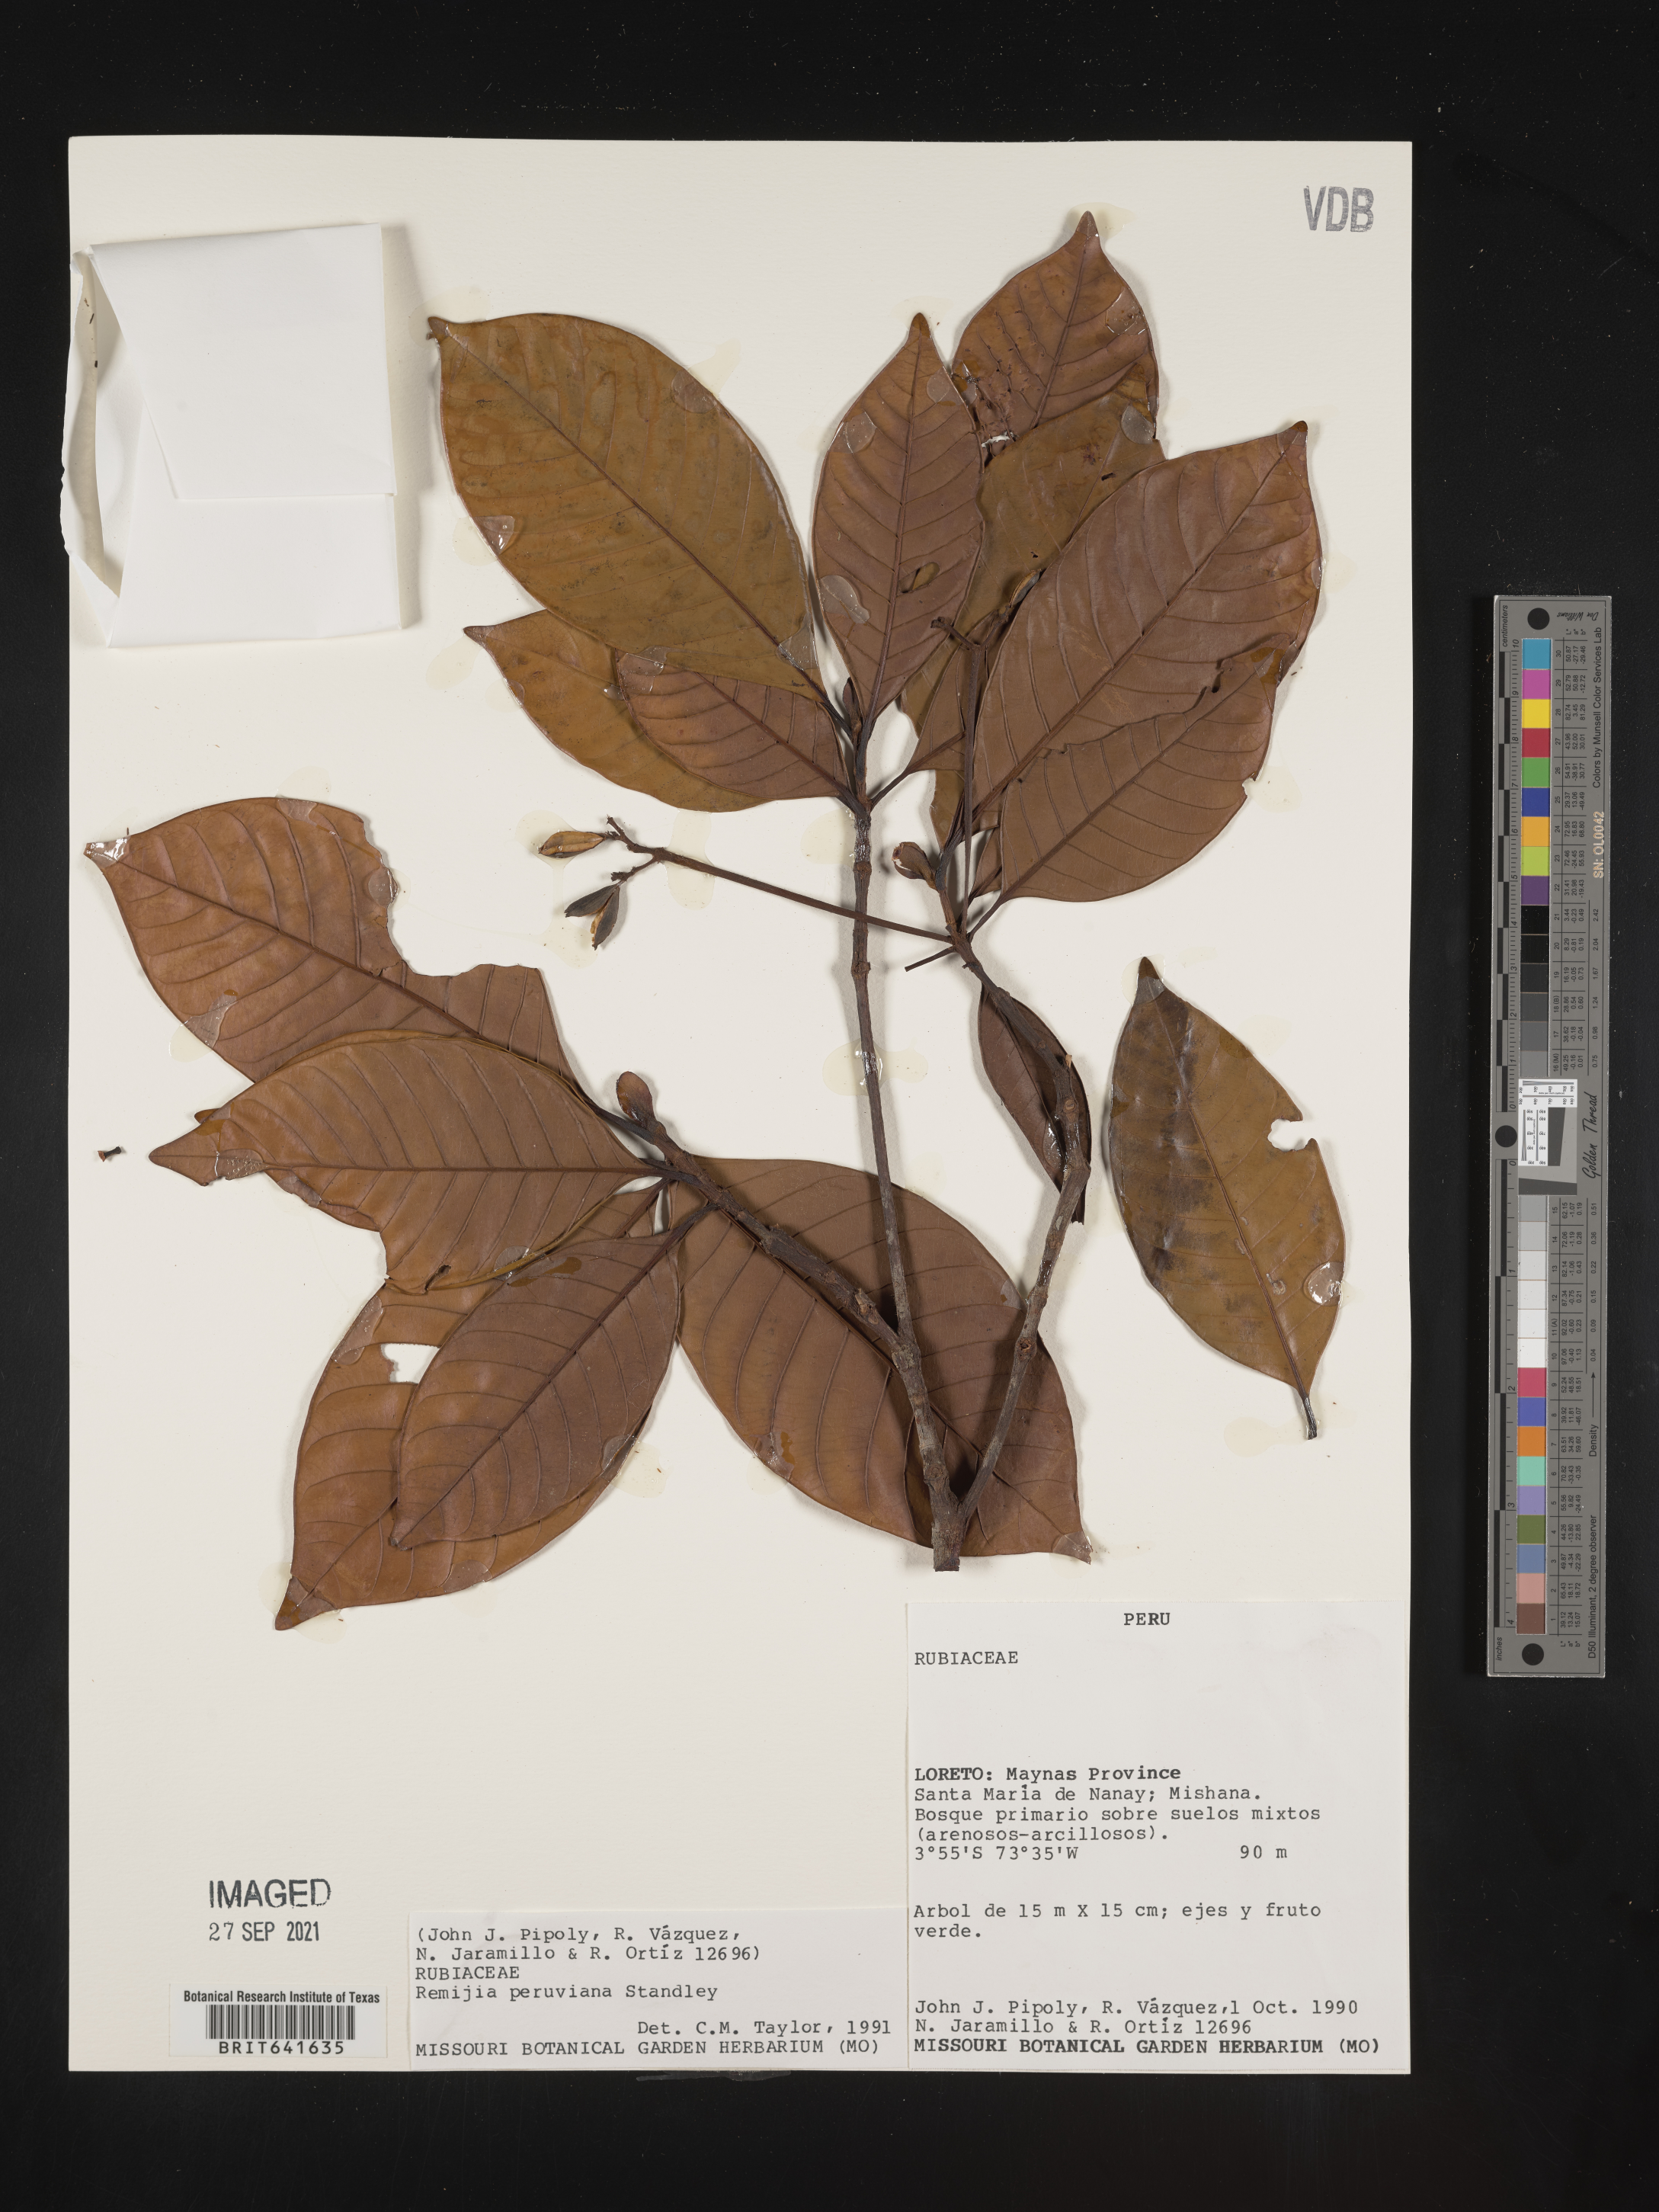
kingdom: Plantae
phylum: Tracheophyta
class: Magnoliopsida
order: Gentianales
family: Rubiaceae
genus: Remijia
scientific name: Remijia
